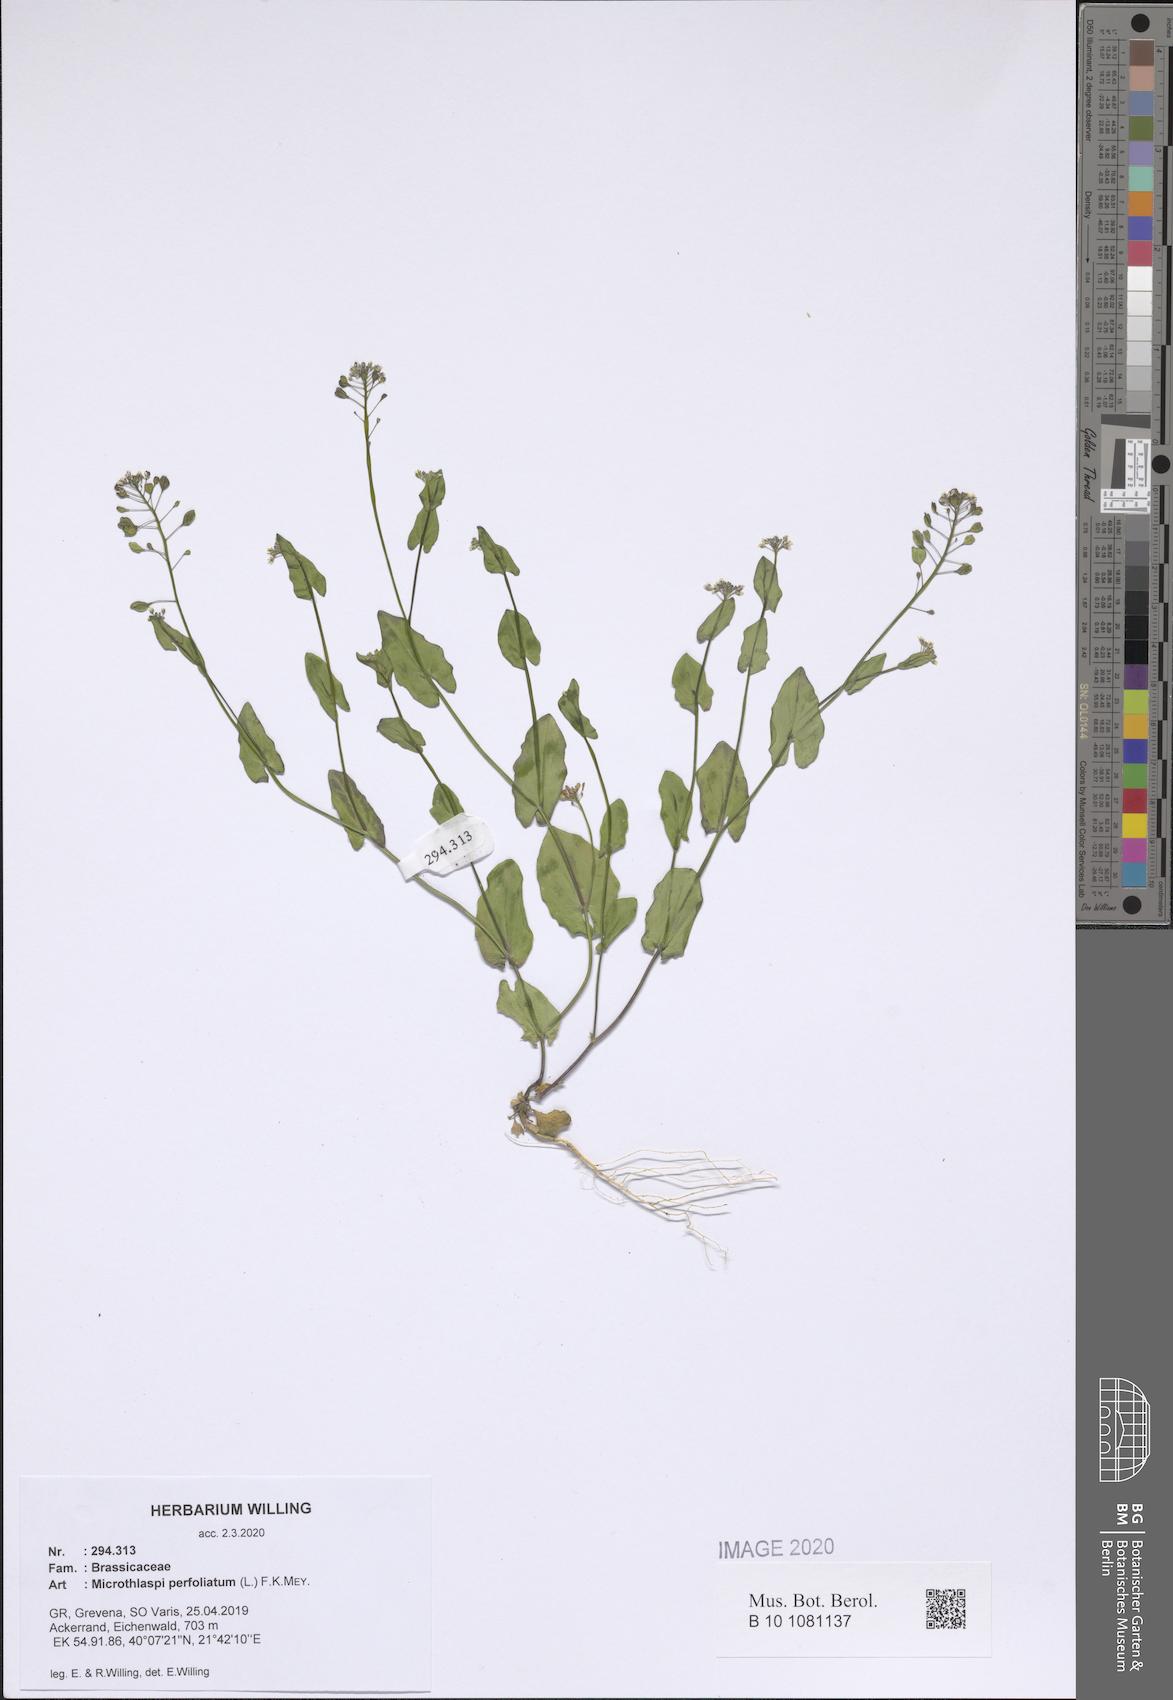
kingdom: Plantae
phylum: Tracheophyta
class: Magnoliopsida
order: Brassicales
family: Brassicaceae
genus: Noccaea
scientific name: Noccaea perfoliata
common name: Perfoliate pennycress
